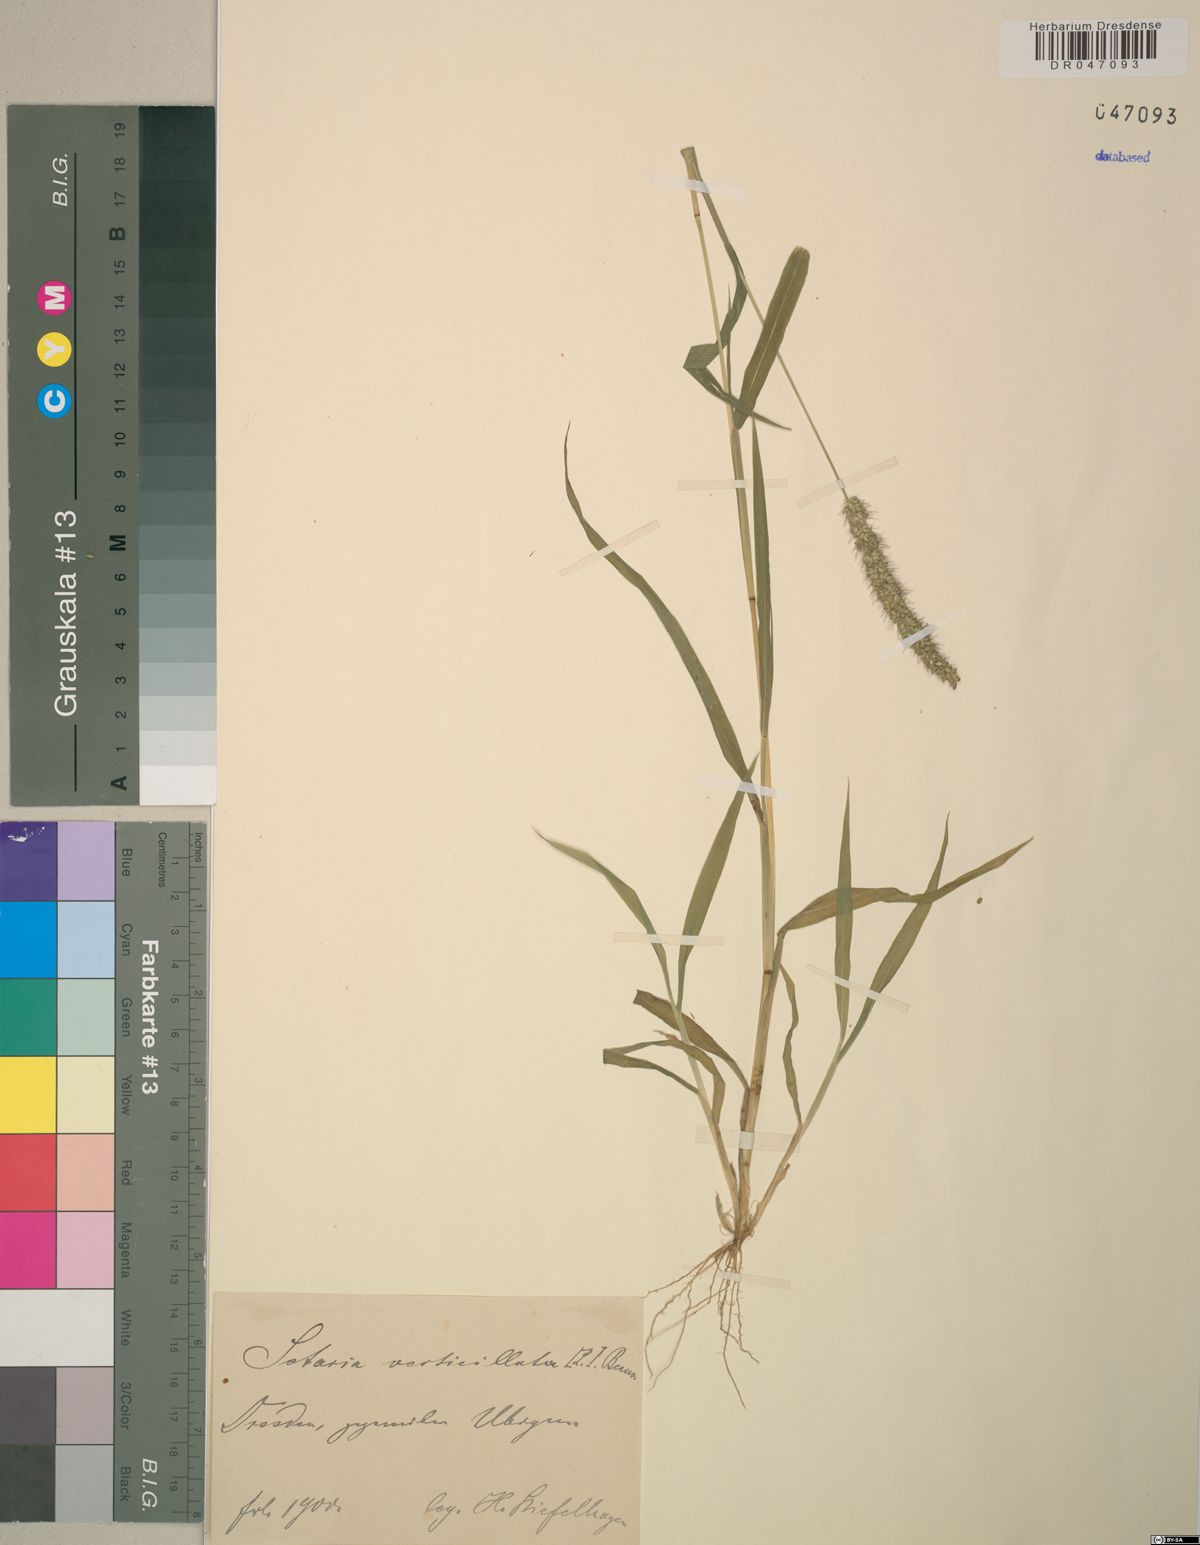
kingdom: Plantae
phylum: Tracheophyta
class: Liliopsida
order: Poales
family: Poaceae
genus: Setaria
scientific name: Setaria verticillata
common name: Hooked bristlegrass
